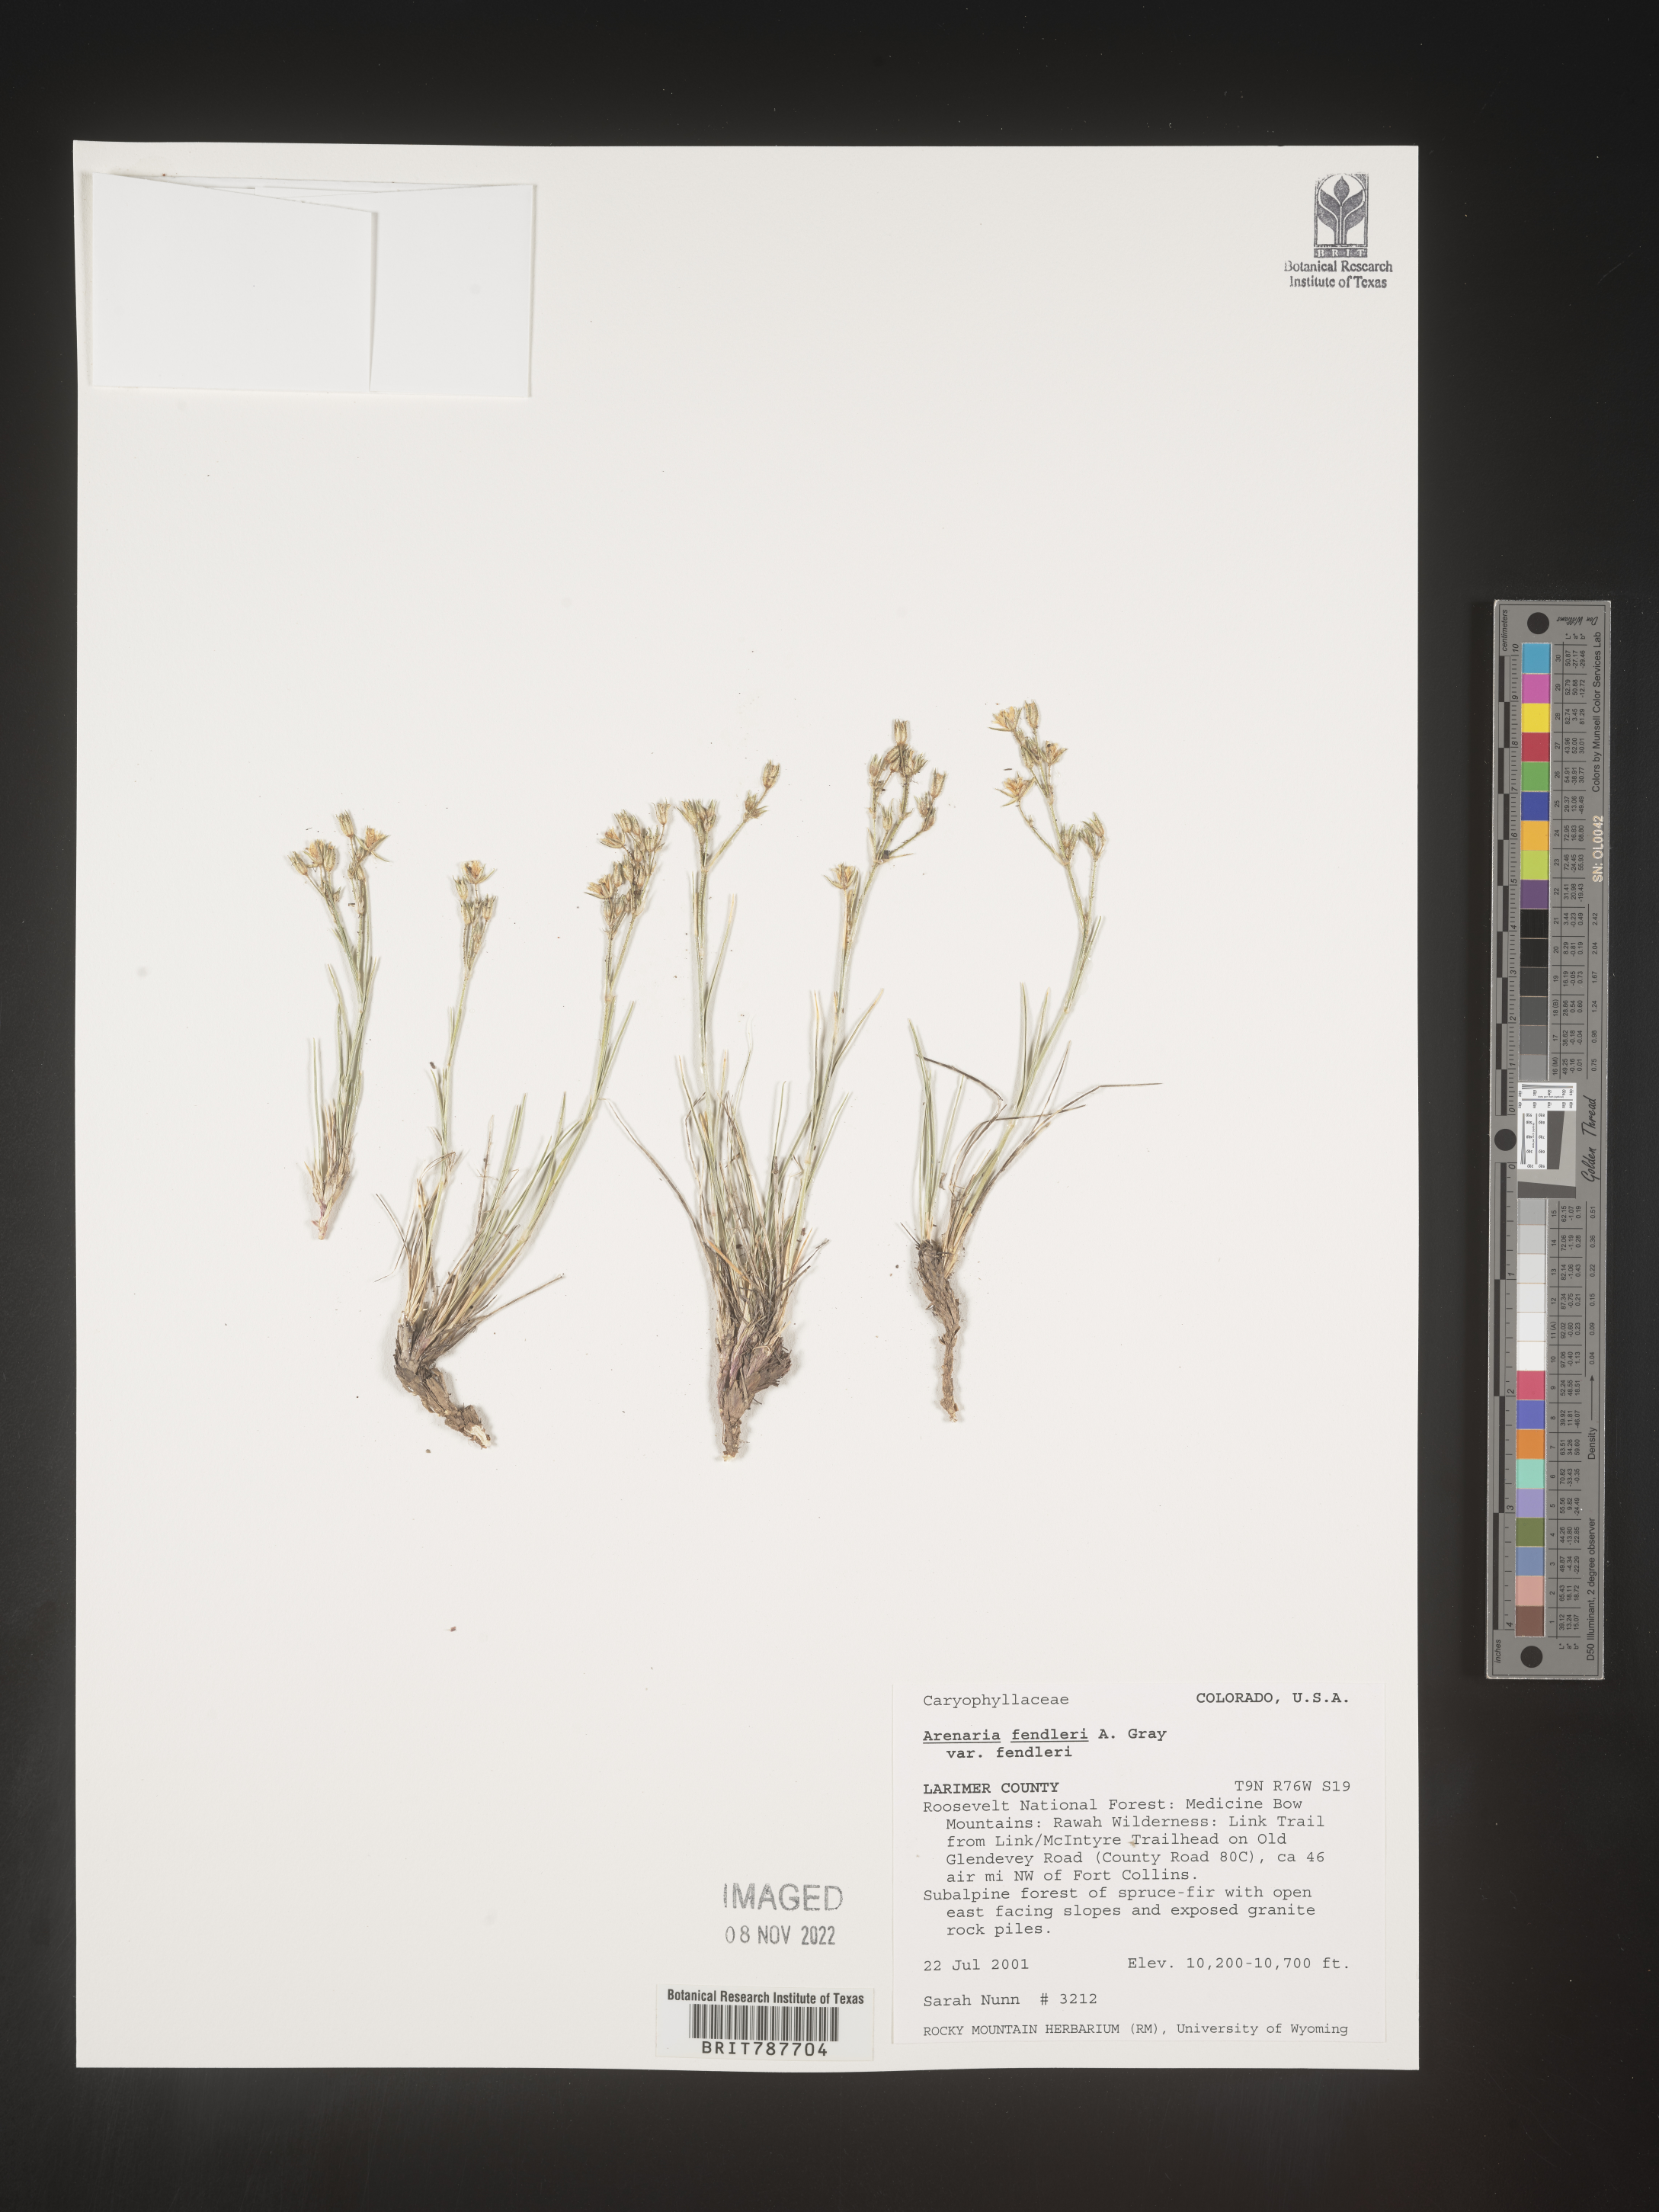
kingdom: Plantae
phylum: Tracheophyta
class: Magnoliopsida
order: Caryophyllales
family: Caryophyllaceae
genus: Arenaria
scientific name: Arenaria
